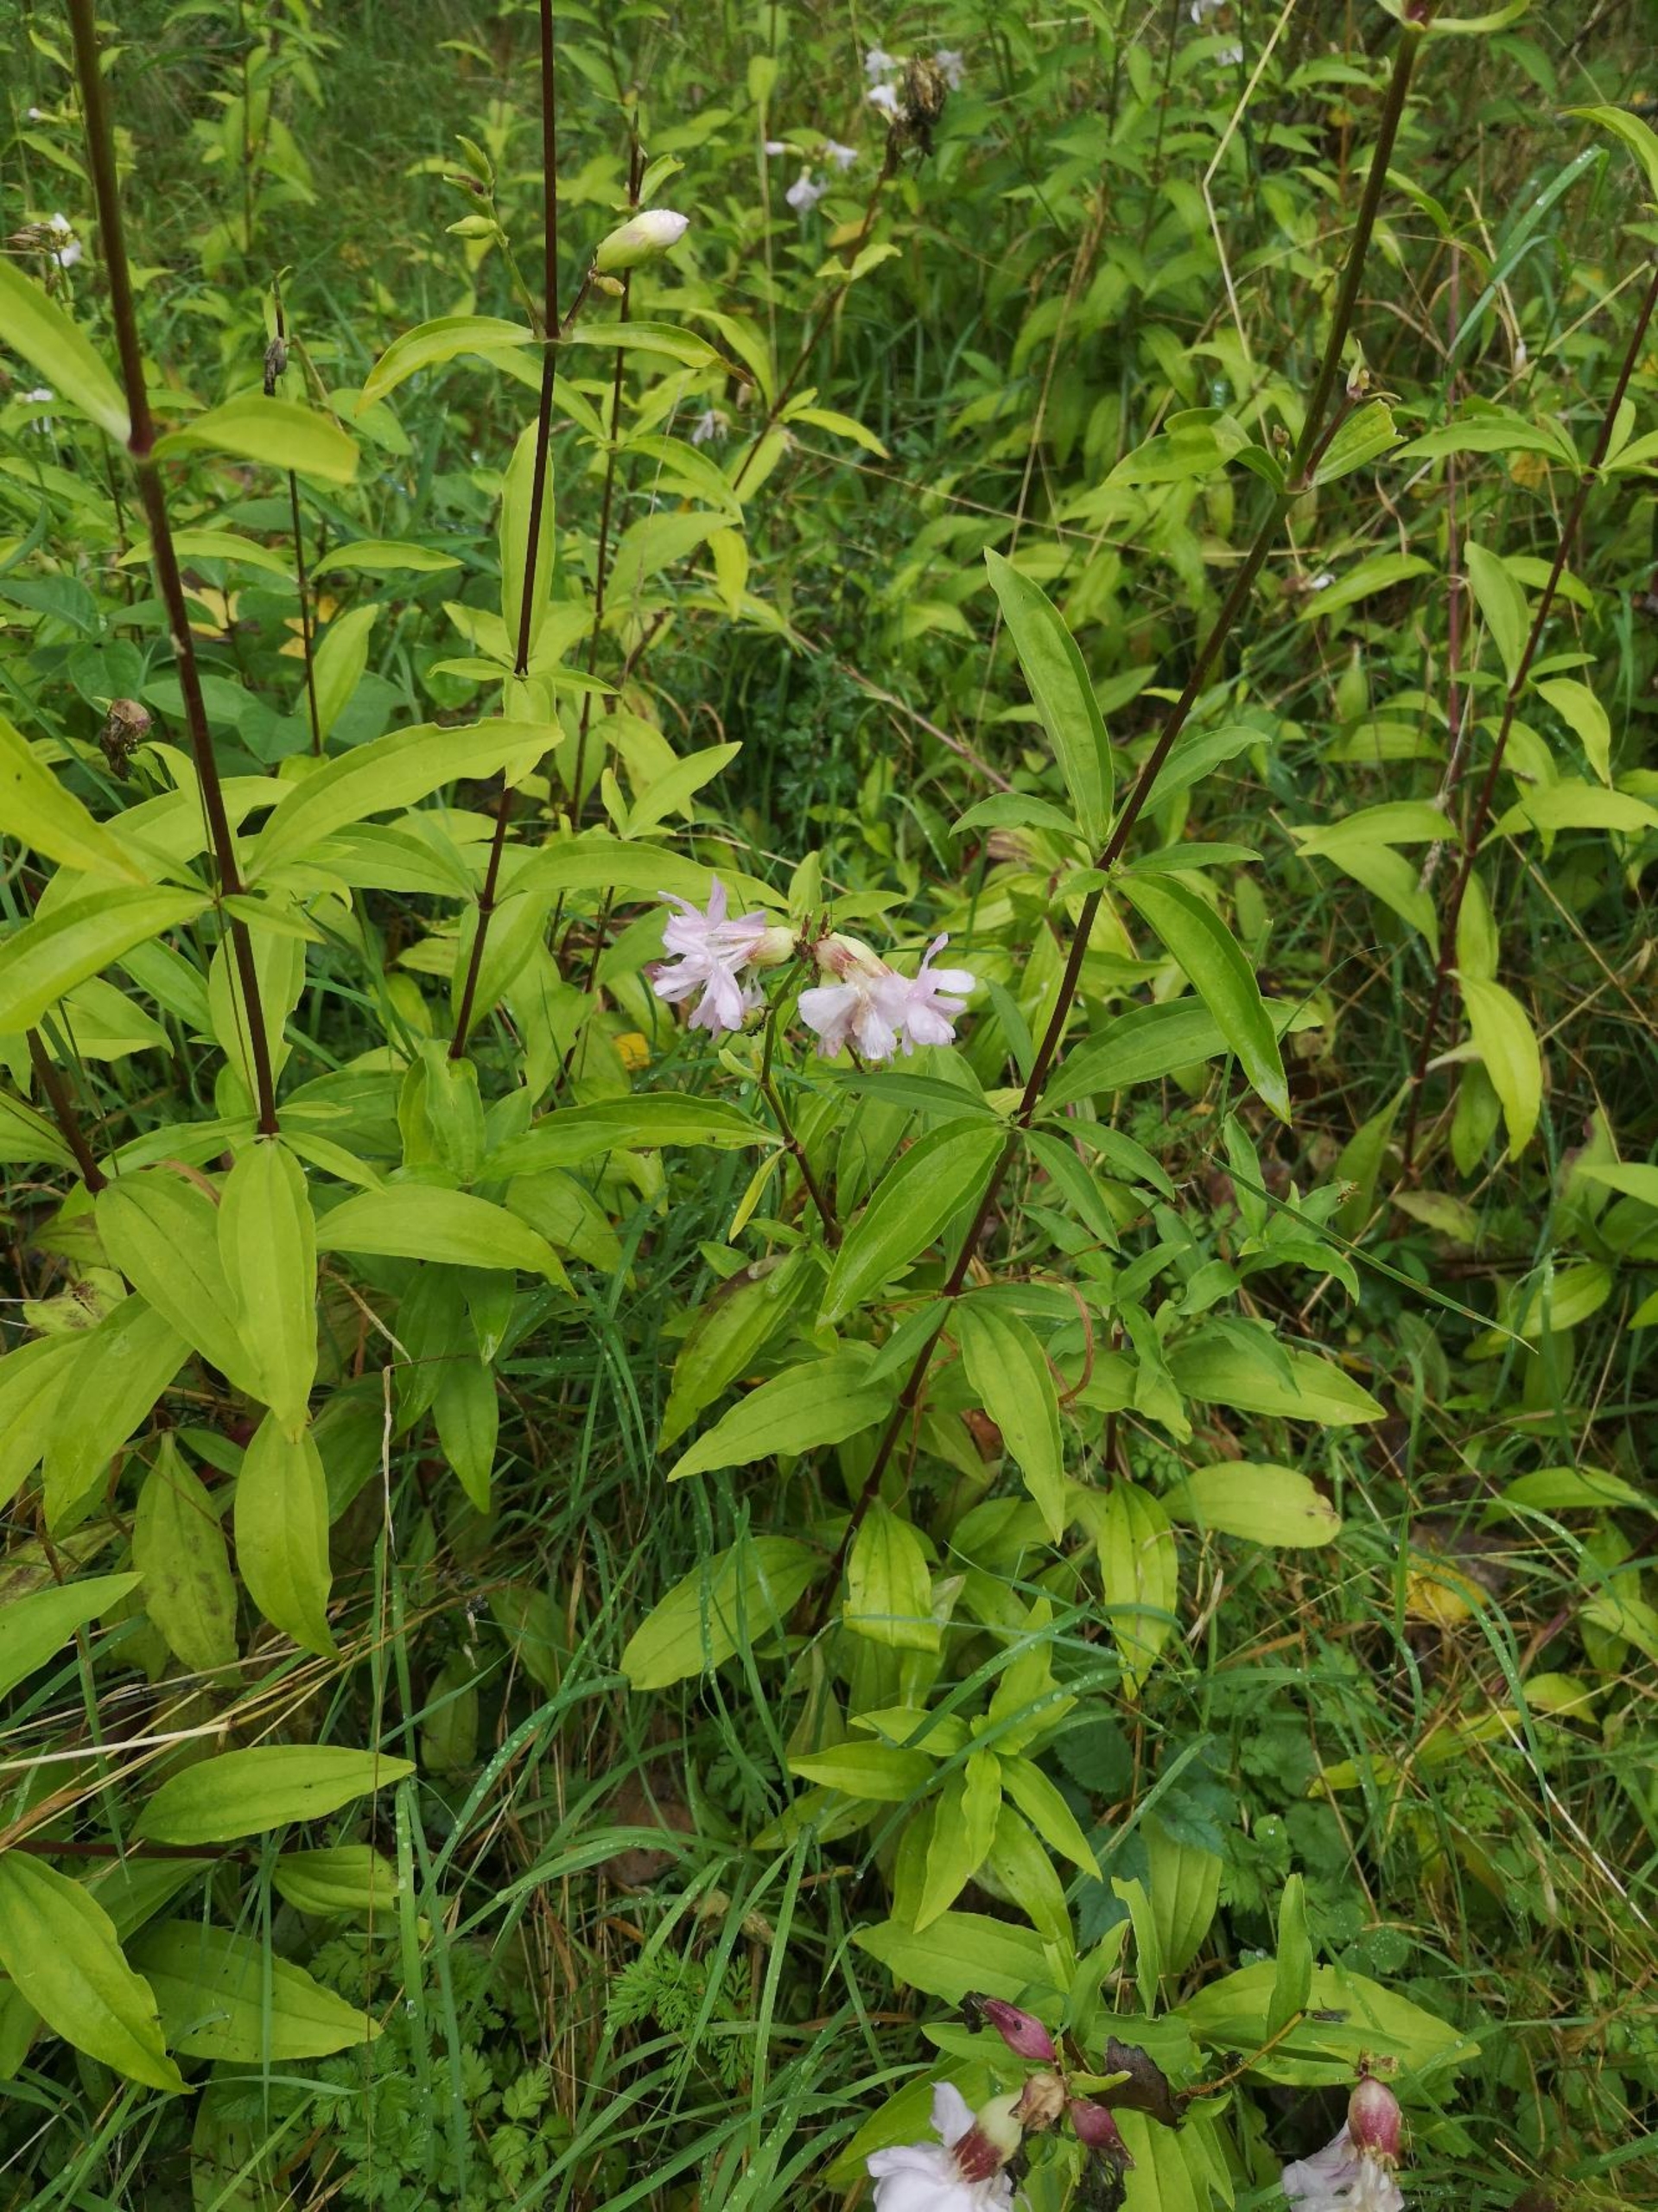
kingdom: Plantae
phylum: Tracheophyta
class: Magnoliopsida
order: Caryophyllales
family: Caryophyllaceae
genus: Saponaria
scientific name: Saponaria officinalis
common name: Sæbeurt
